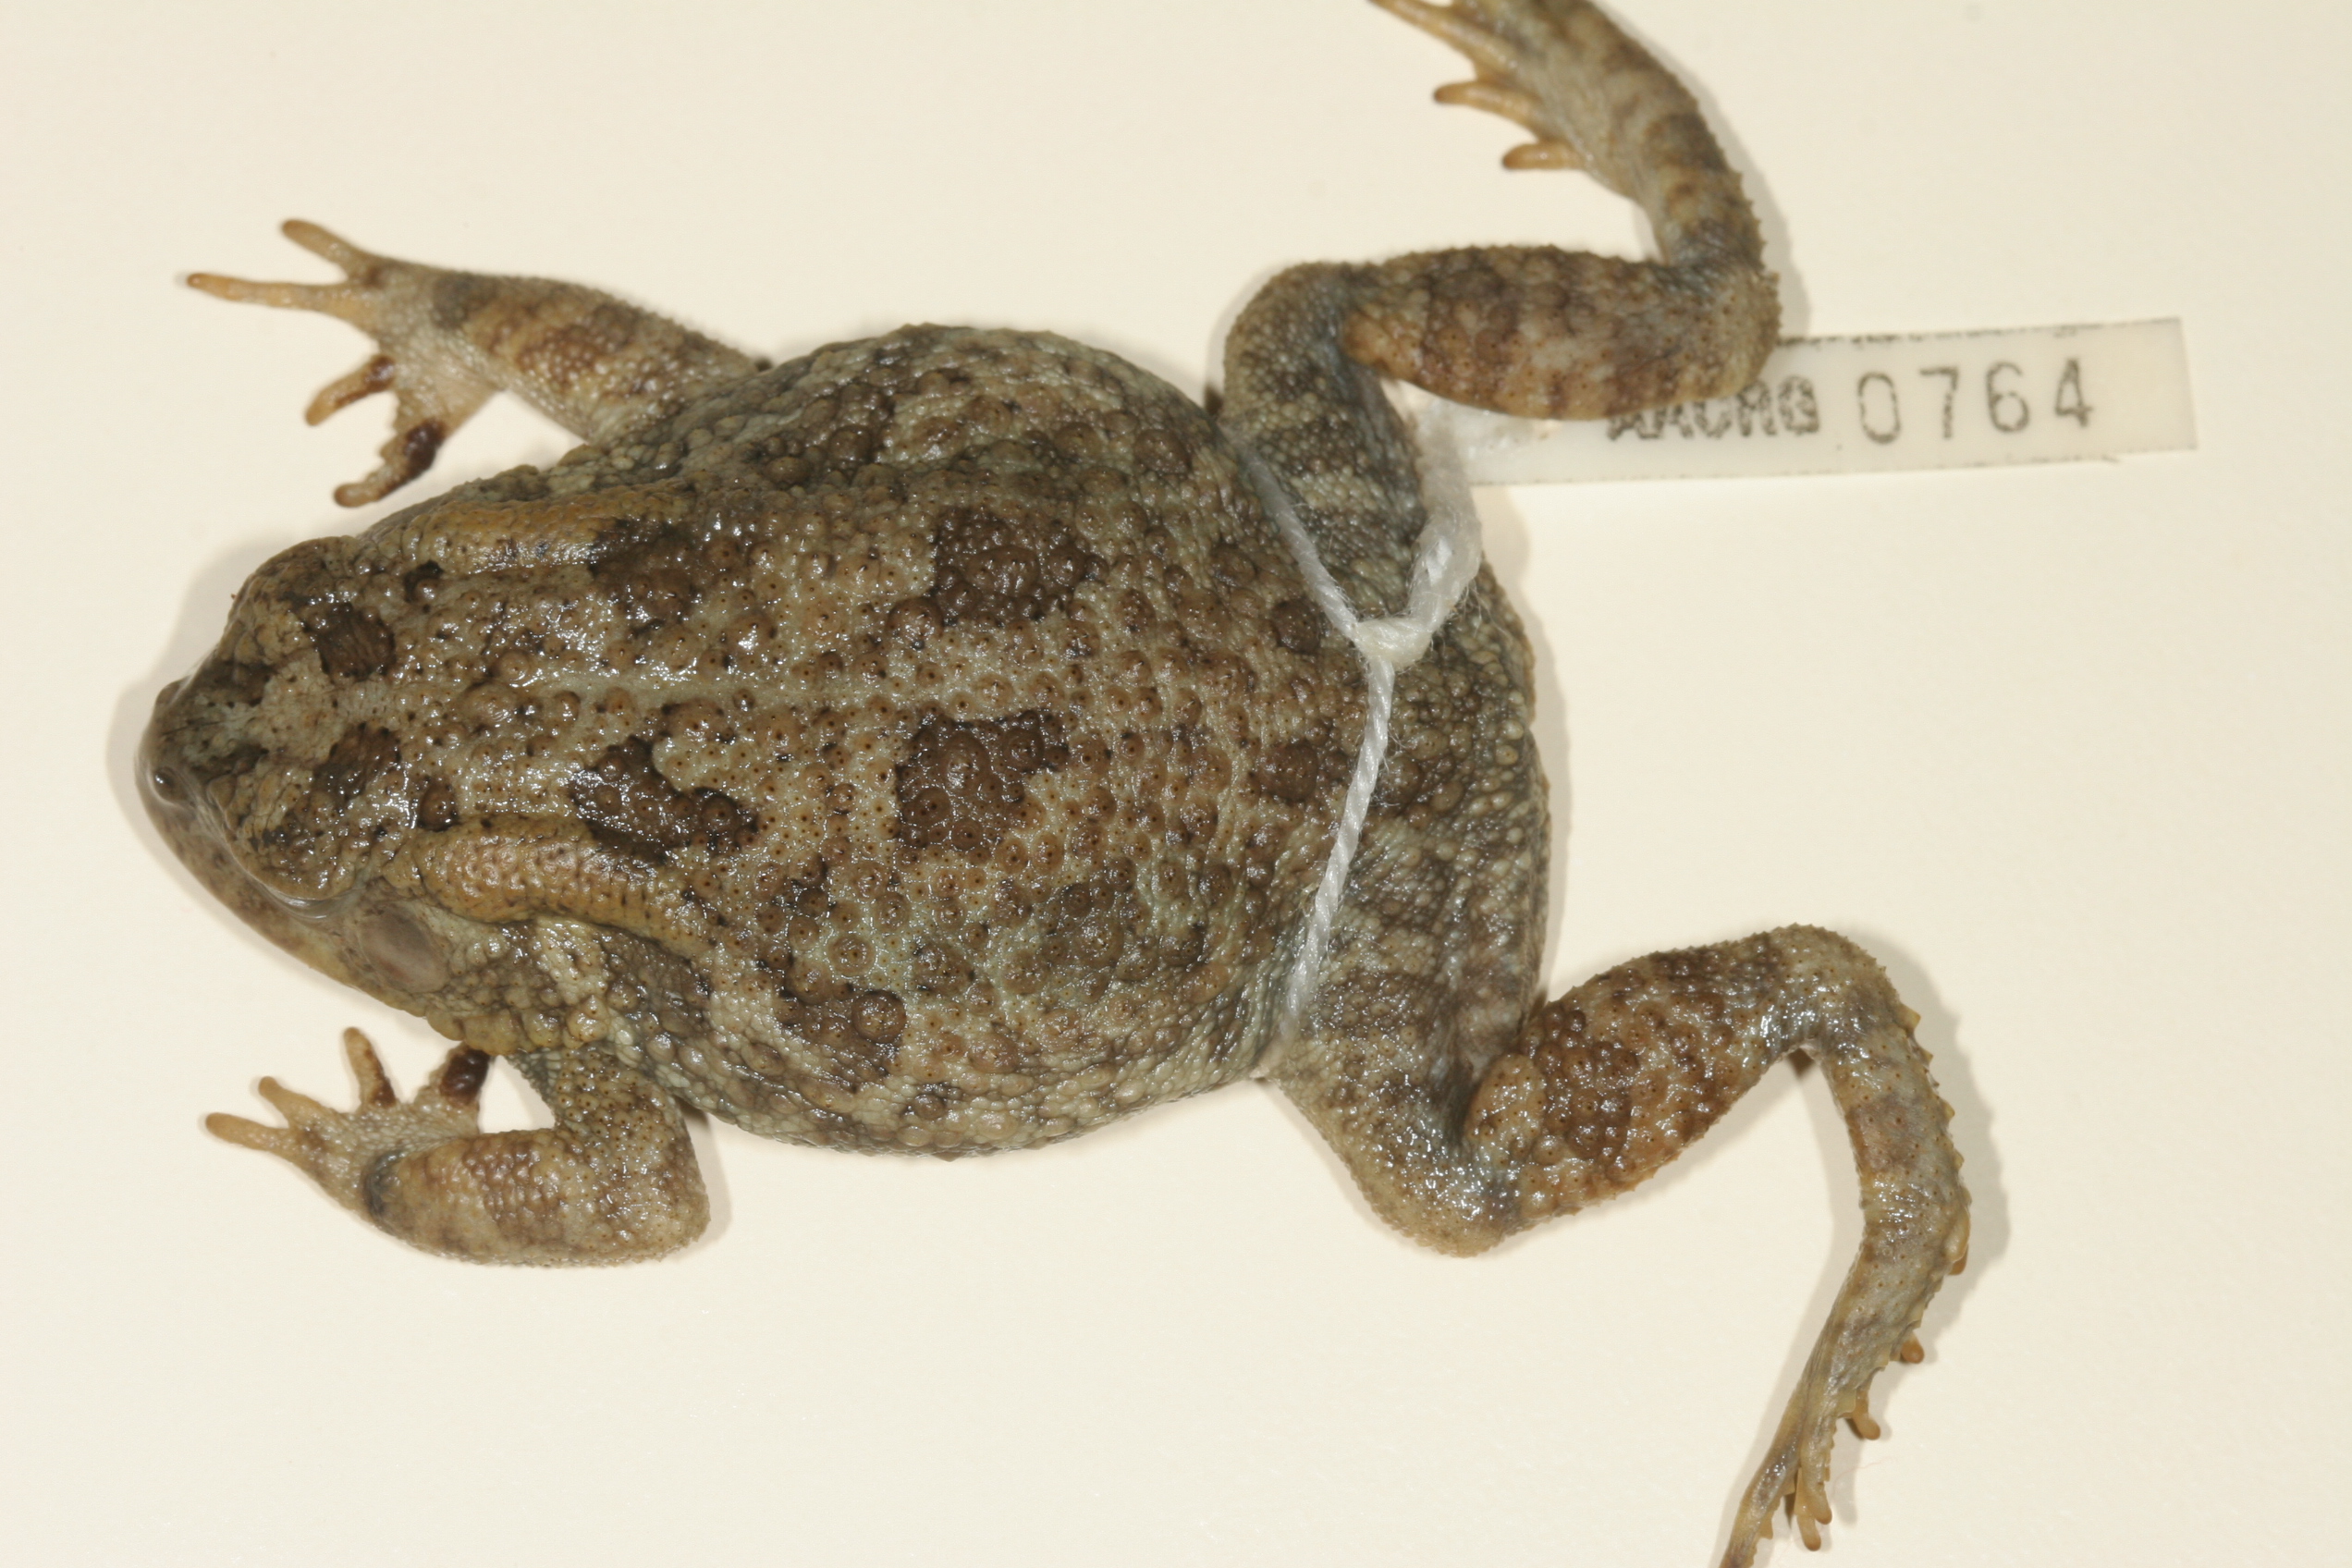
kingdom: Animalia
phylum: Chordata
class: Amphibia
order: Anura
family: Bufonidae
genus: Sclerophrys
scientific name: Sclerophrys gutturalis
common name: African common toad
